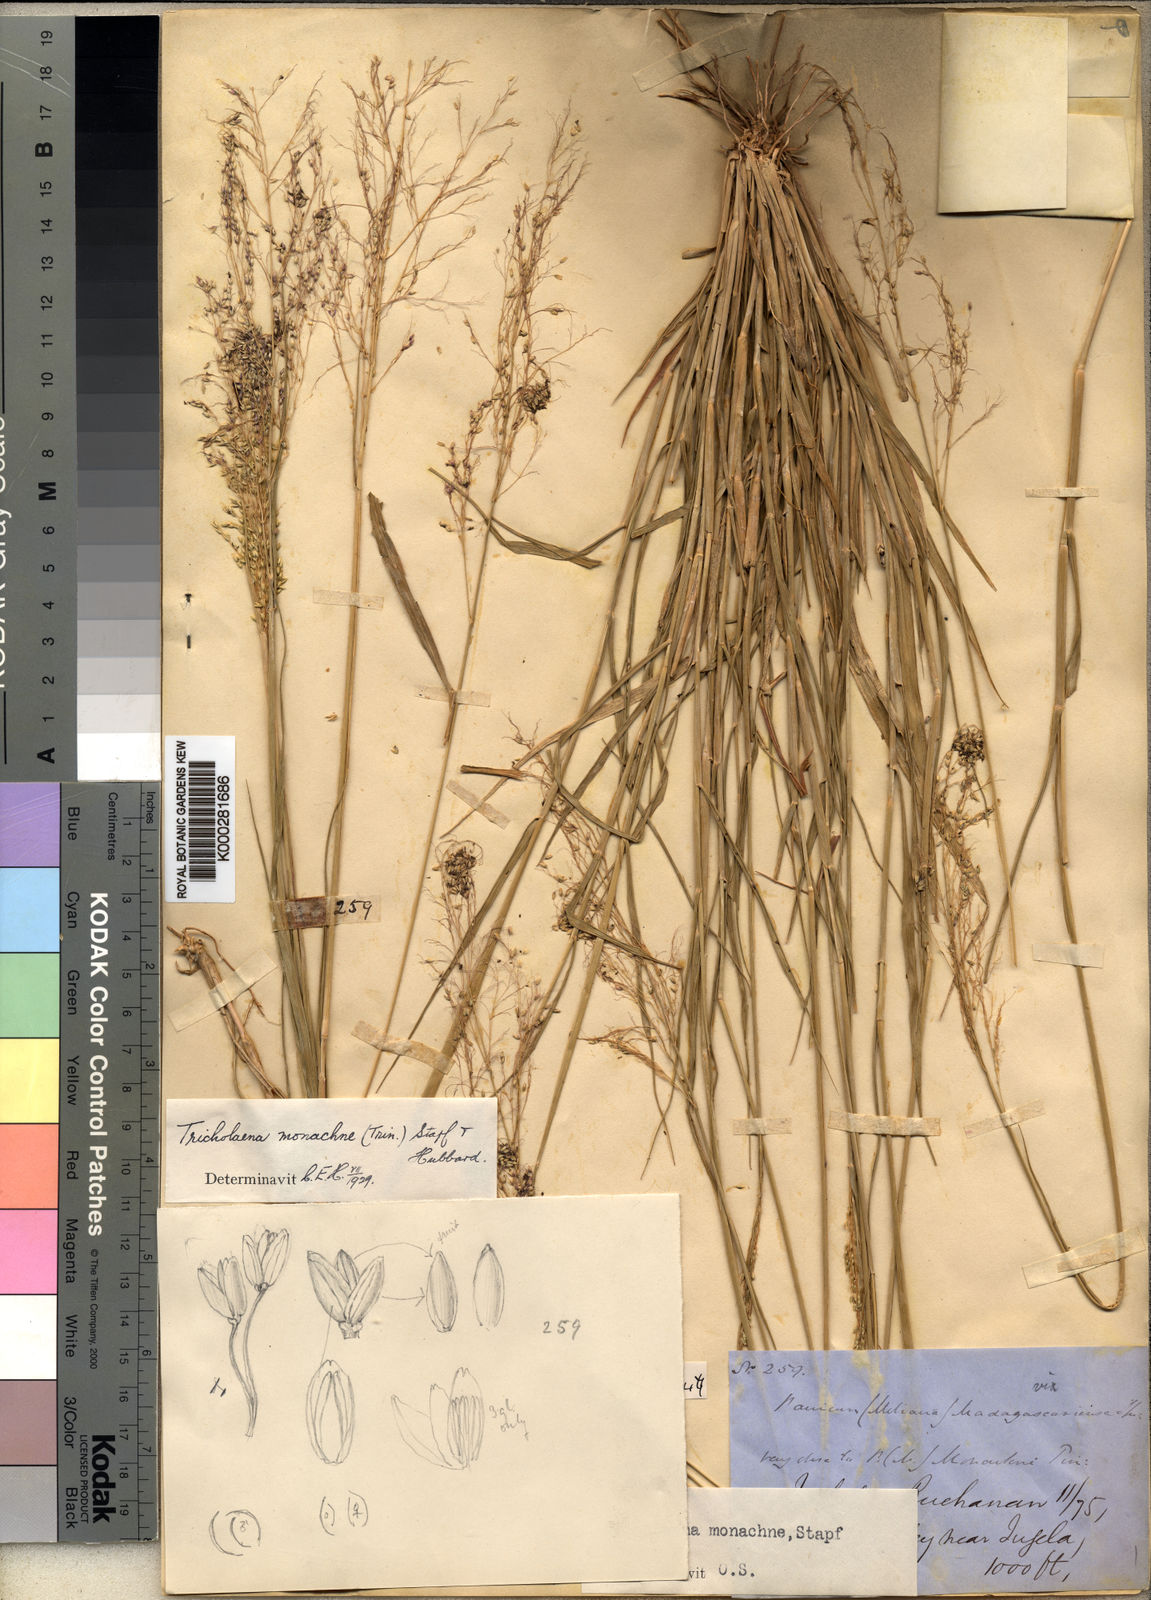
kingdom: Plantae
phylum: Tracheophyta
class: Liliopsida
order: Poales
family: Poaceae
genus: Tricholaena
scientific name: Tricholaena
